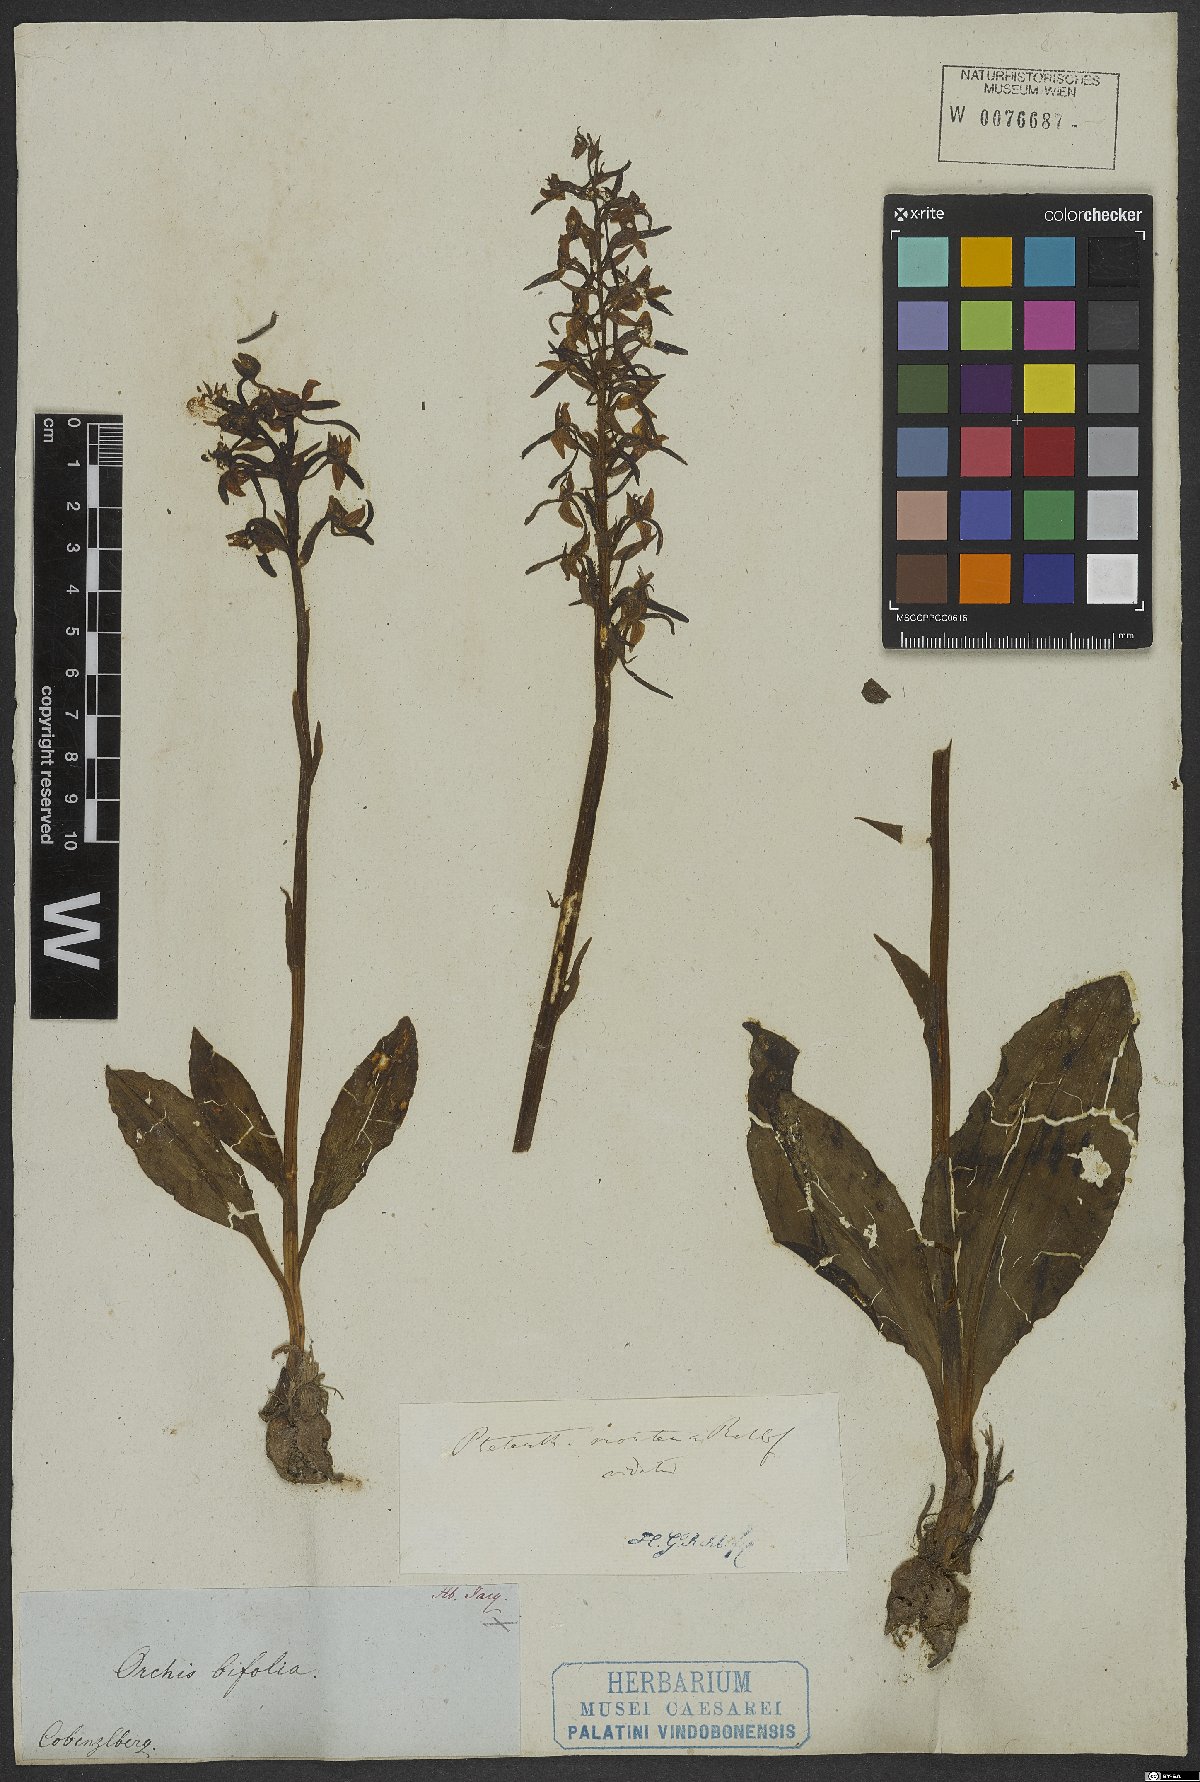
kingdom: Plantae
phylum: Tracheophyta
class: Liliopsida
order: Asparagales
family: Orchidaceae
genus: Platanthera
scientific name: Platanthera chlorantha
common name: Greater butterfly-orchid
